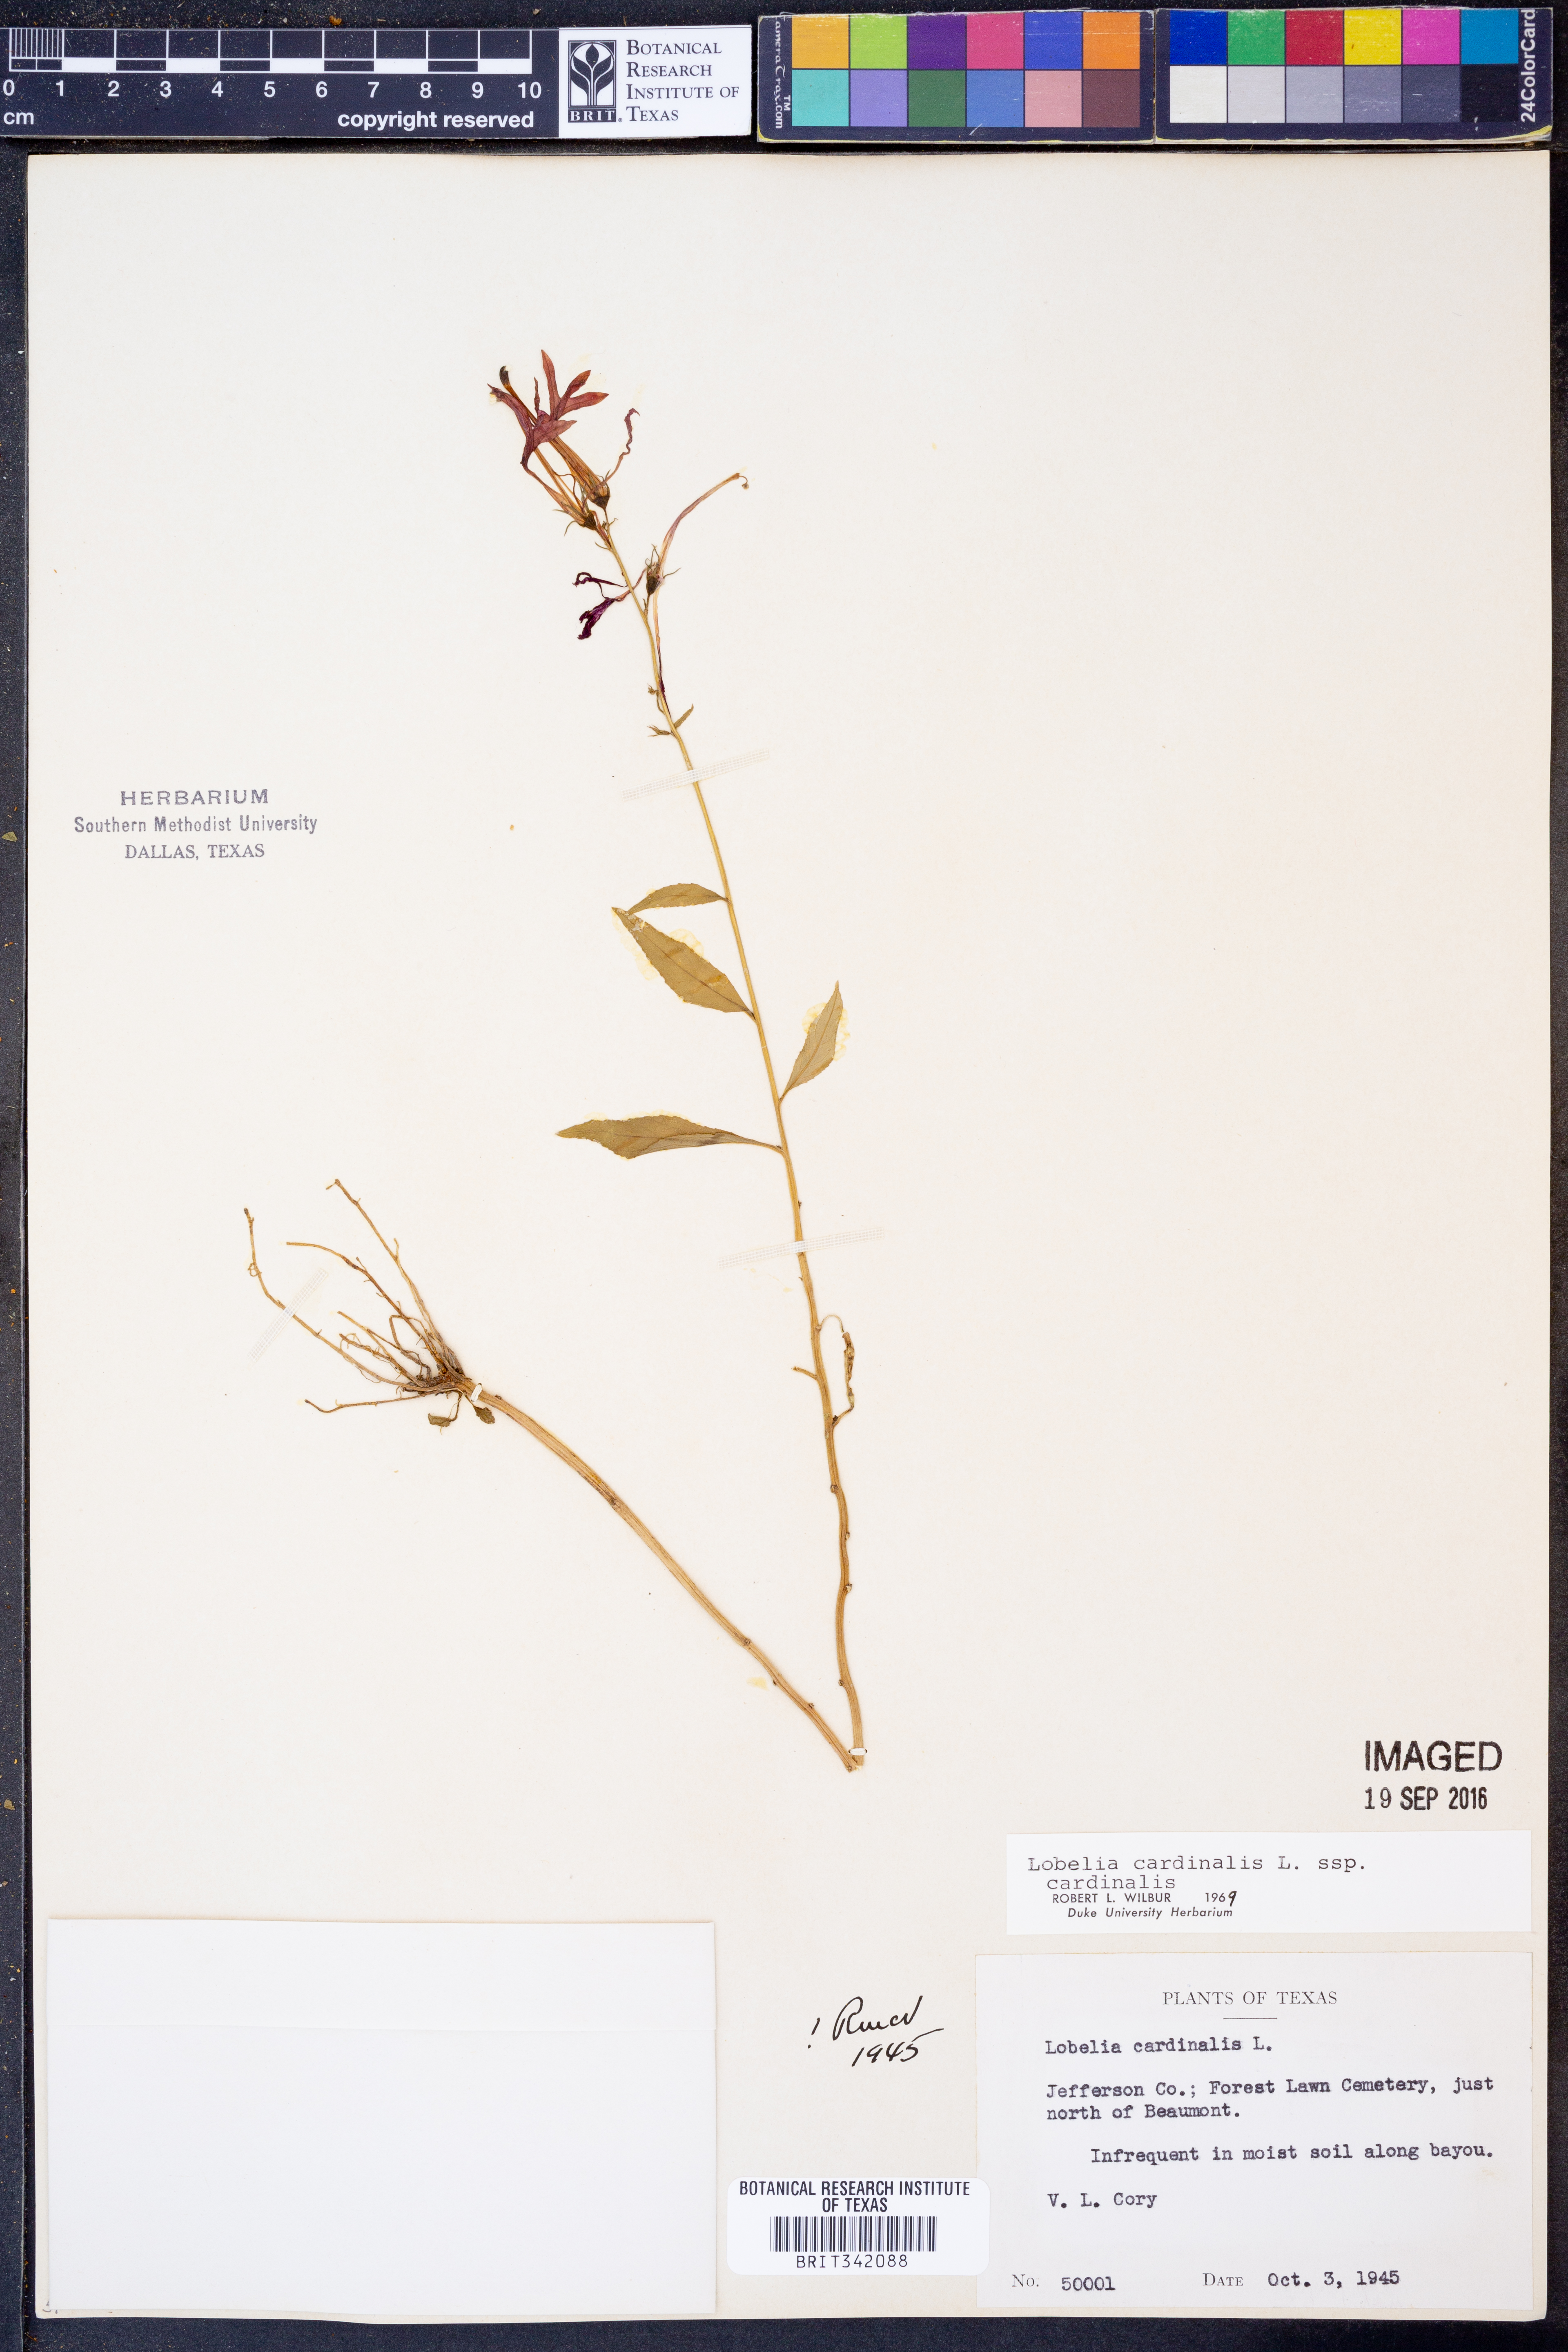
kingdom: Plantae
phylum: Tracheophyta
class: Magnoliopsida
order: Asterales
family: Campanulaceae
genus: Lobelia
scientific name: Lobelia cardinalis
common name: Cardinal flower
